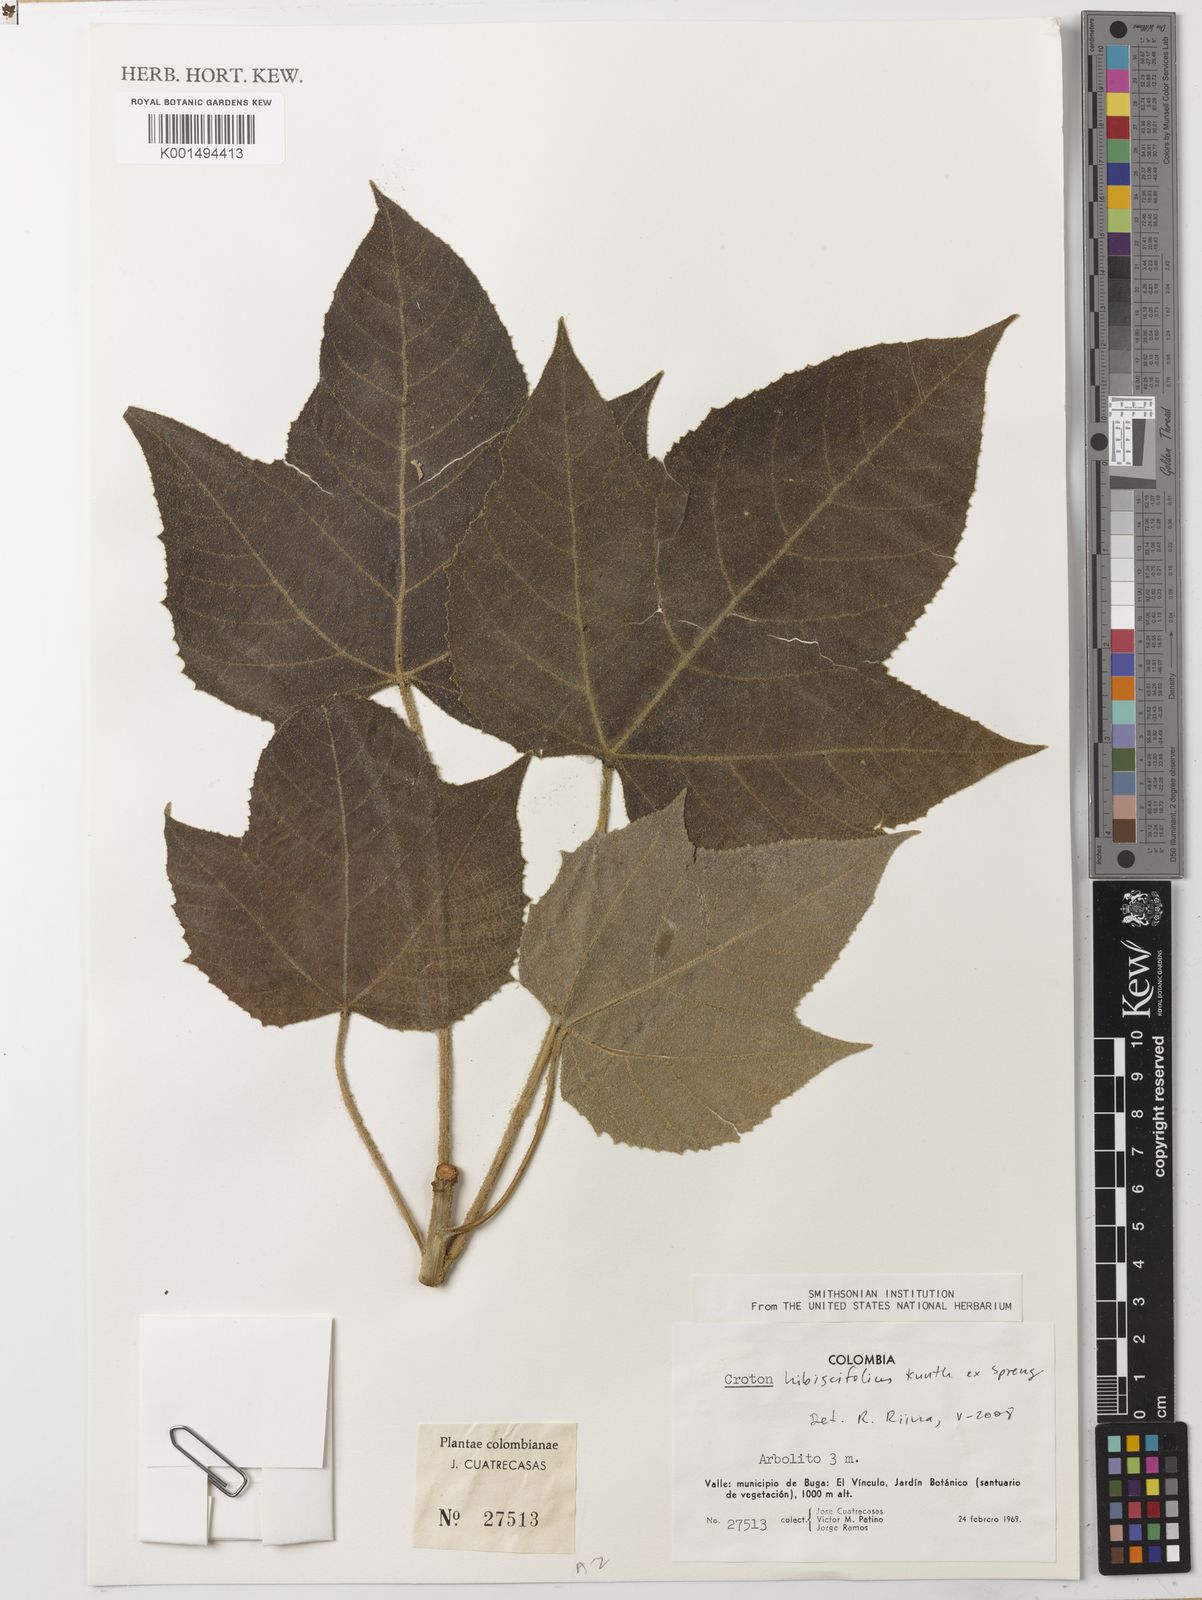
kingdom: Plantae
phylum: Tracheophyta
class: Magnoliopsida
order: Malpighiales
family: Euphorbiaceae
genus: Croton
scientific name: Croton hibiscifolius
